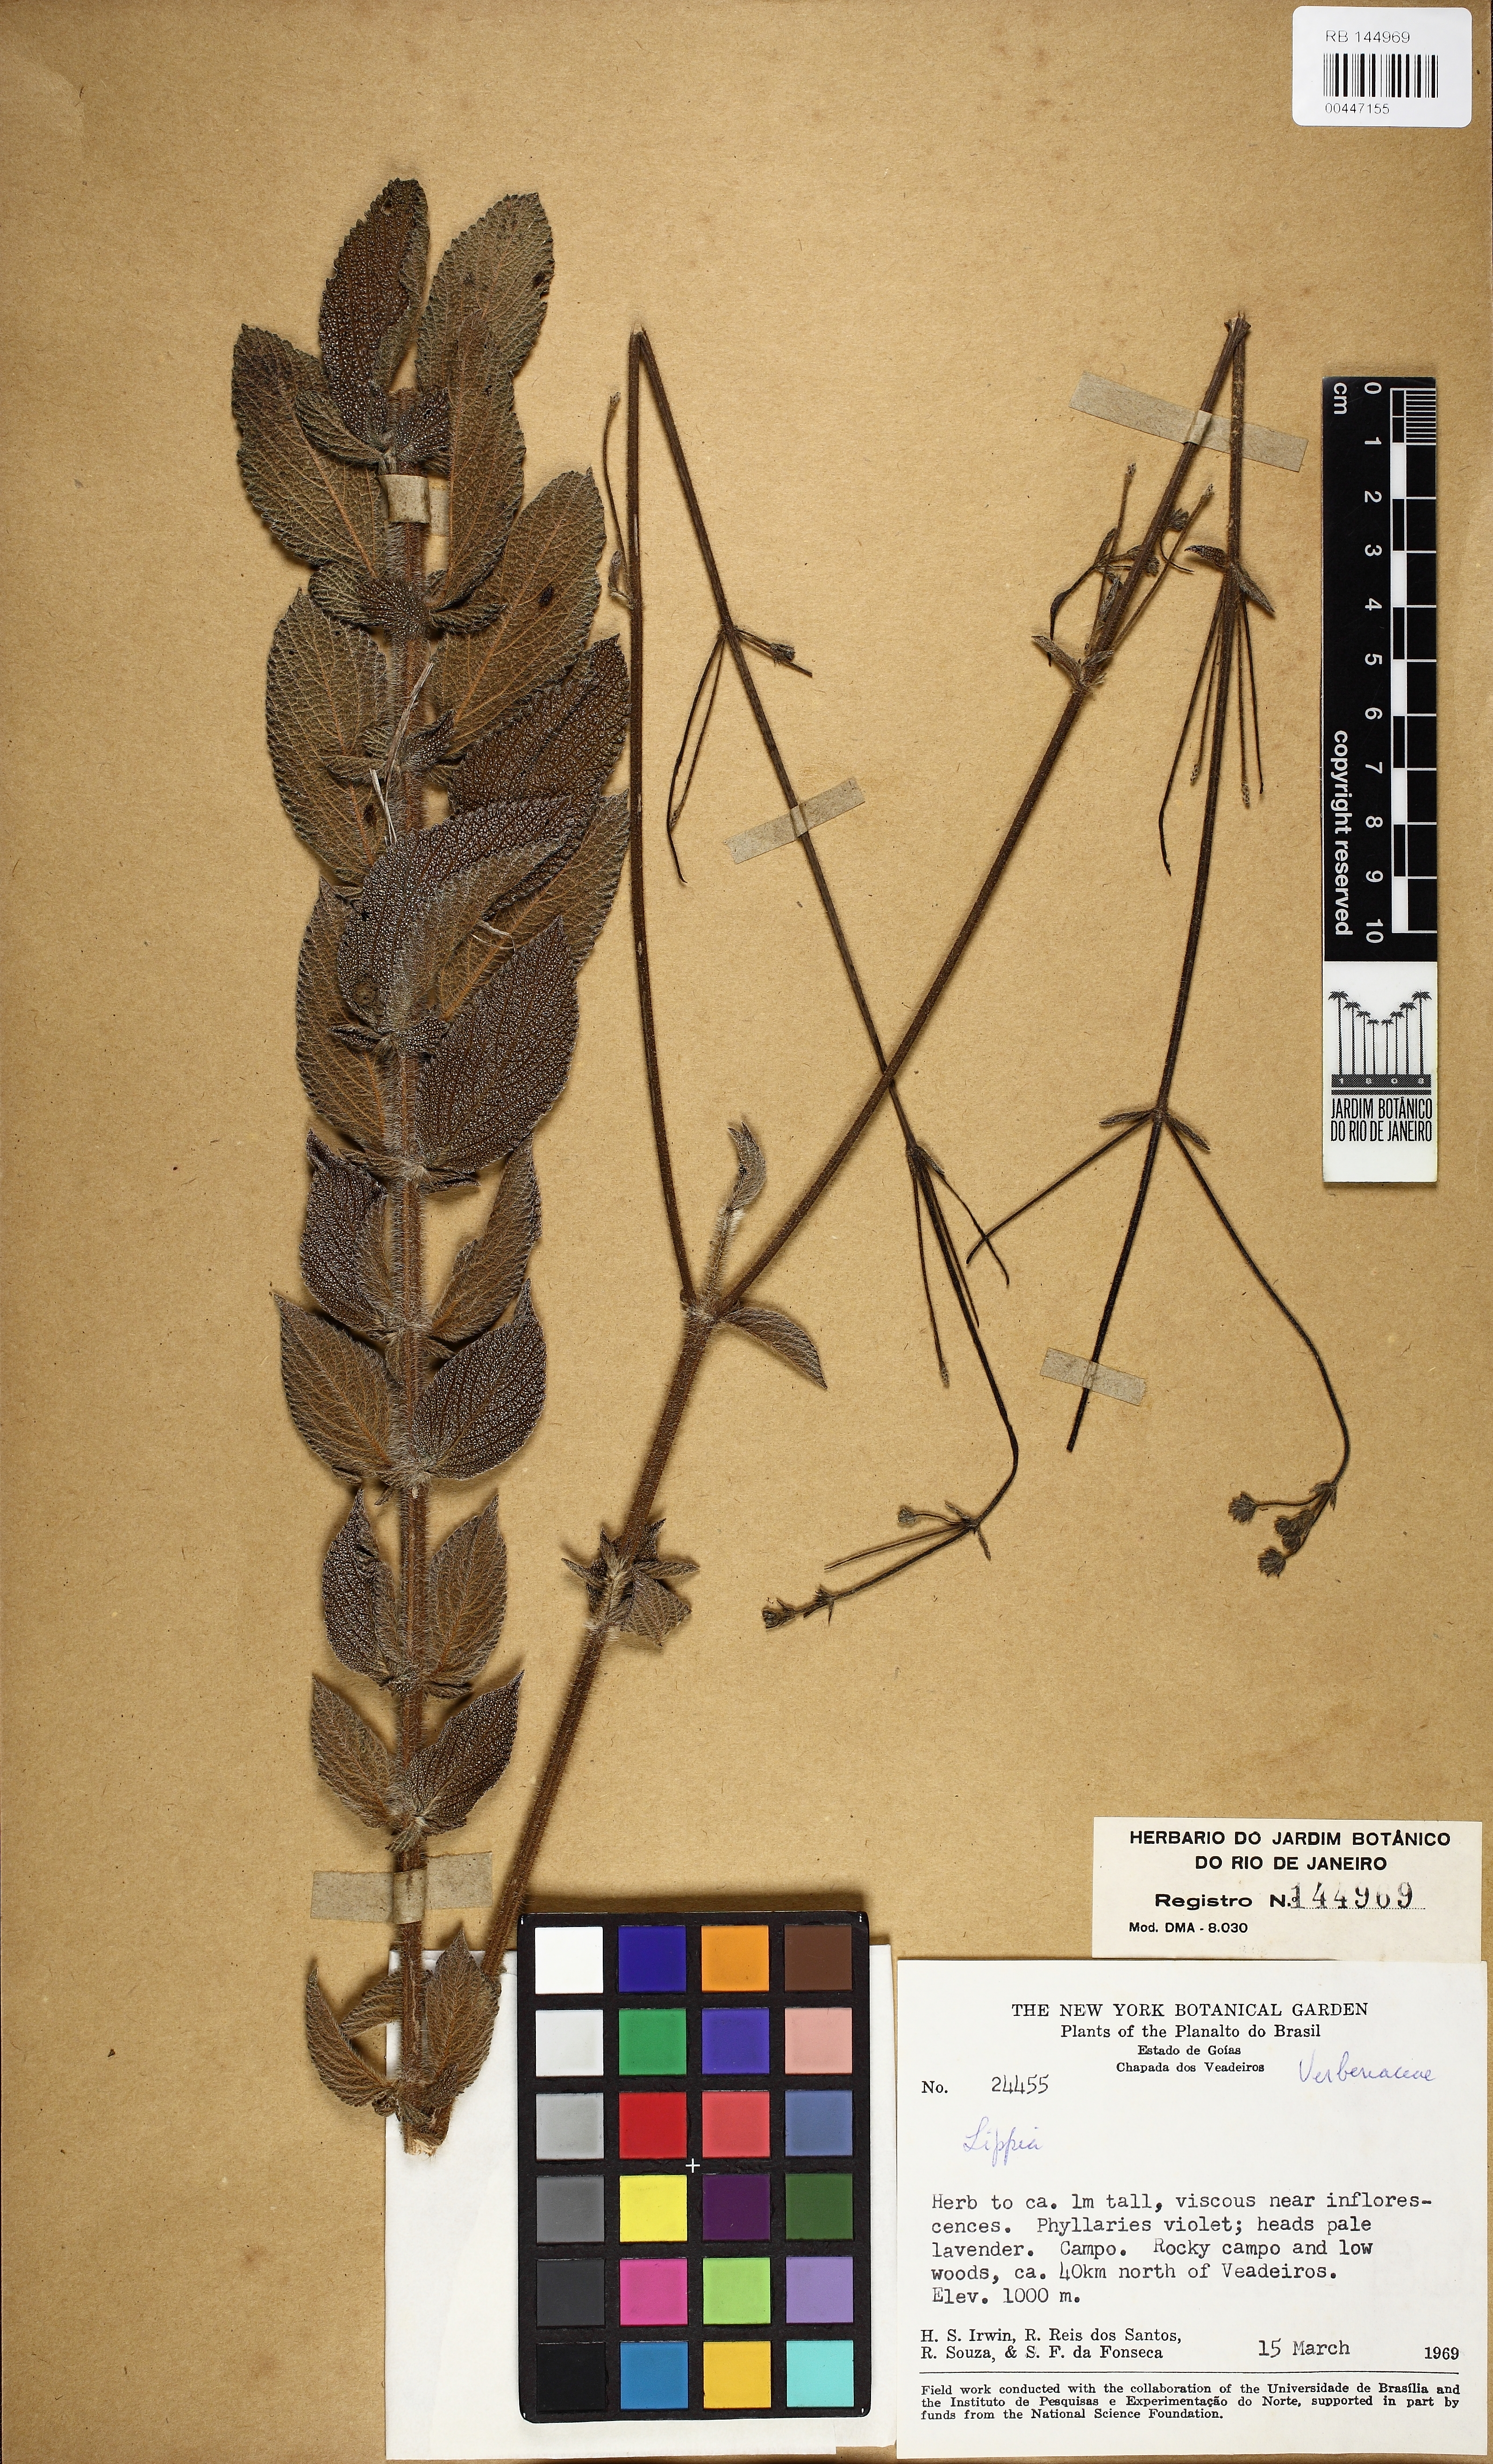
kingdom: Plantae
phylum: Tracheophyta
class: Magnoliopsida
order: Lamiales
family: Verbenaceae
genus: Lippia
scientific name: Lippia
